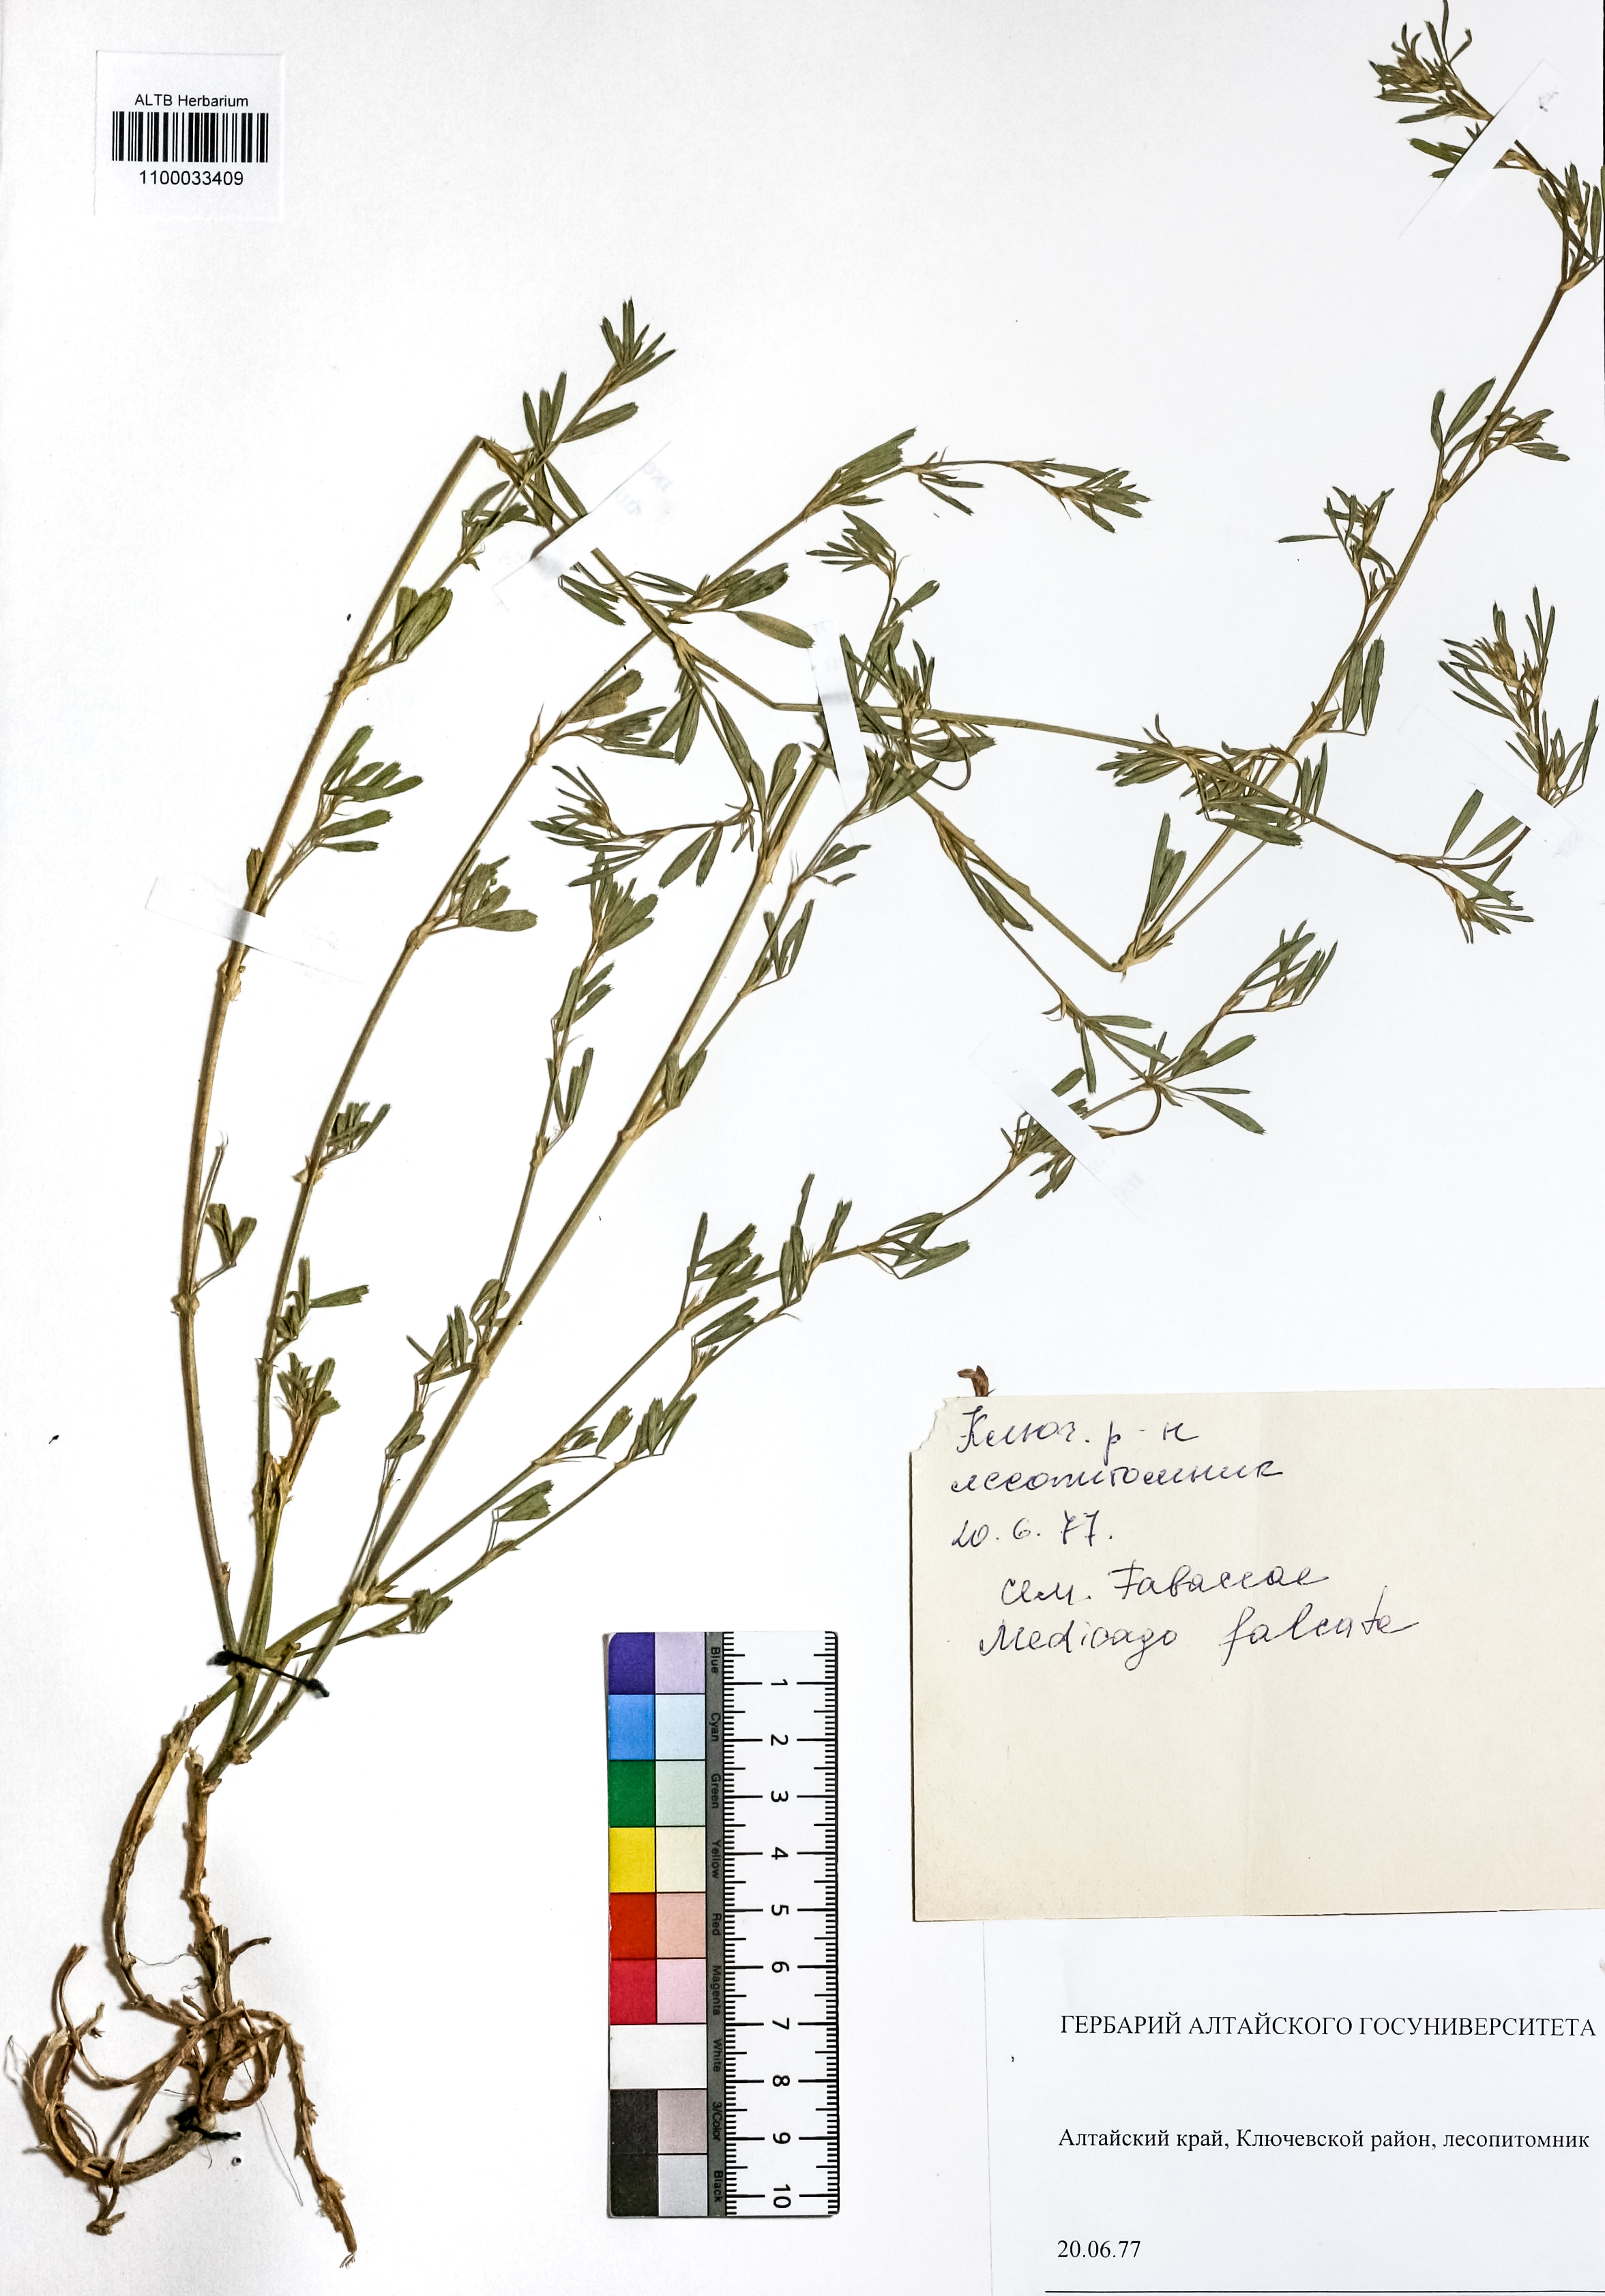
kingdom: Plantae
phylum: Tracheophyta
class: Magnoliopsida
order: Fabales
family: Fabaceae
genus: Medicago
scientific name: Medicago falcata
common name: Sickle medick
